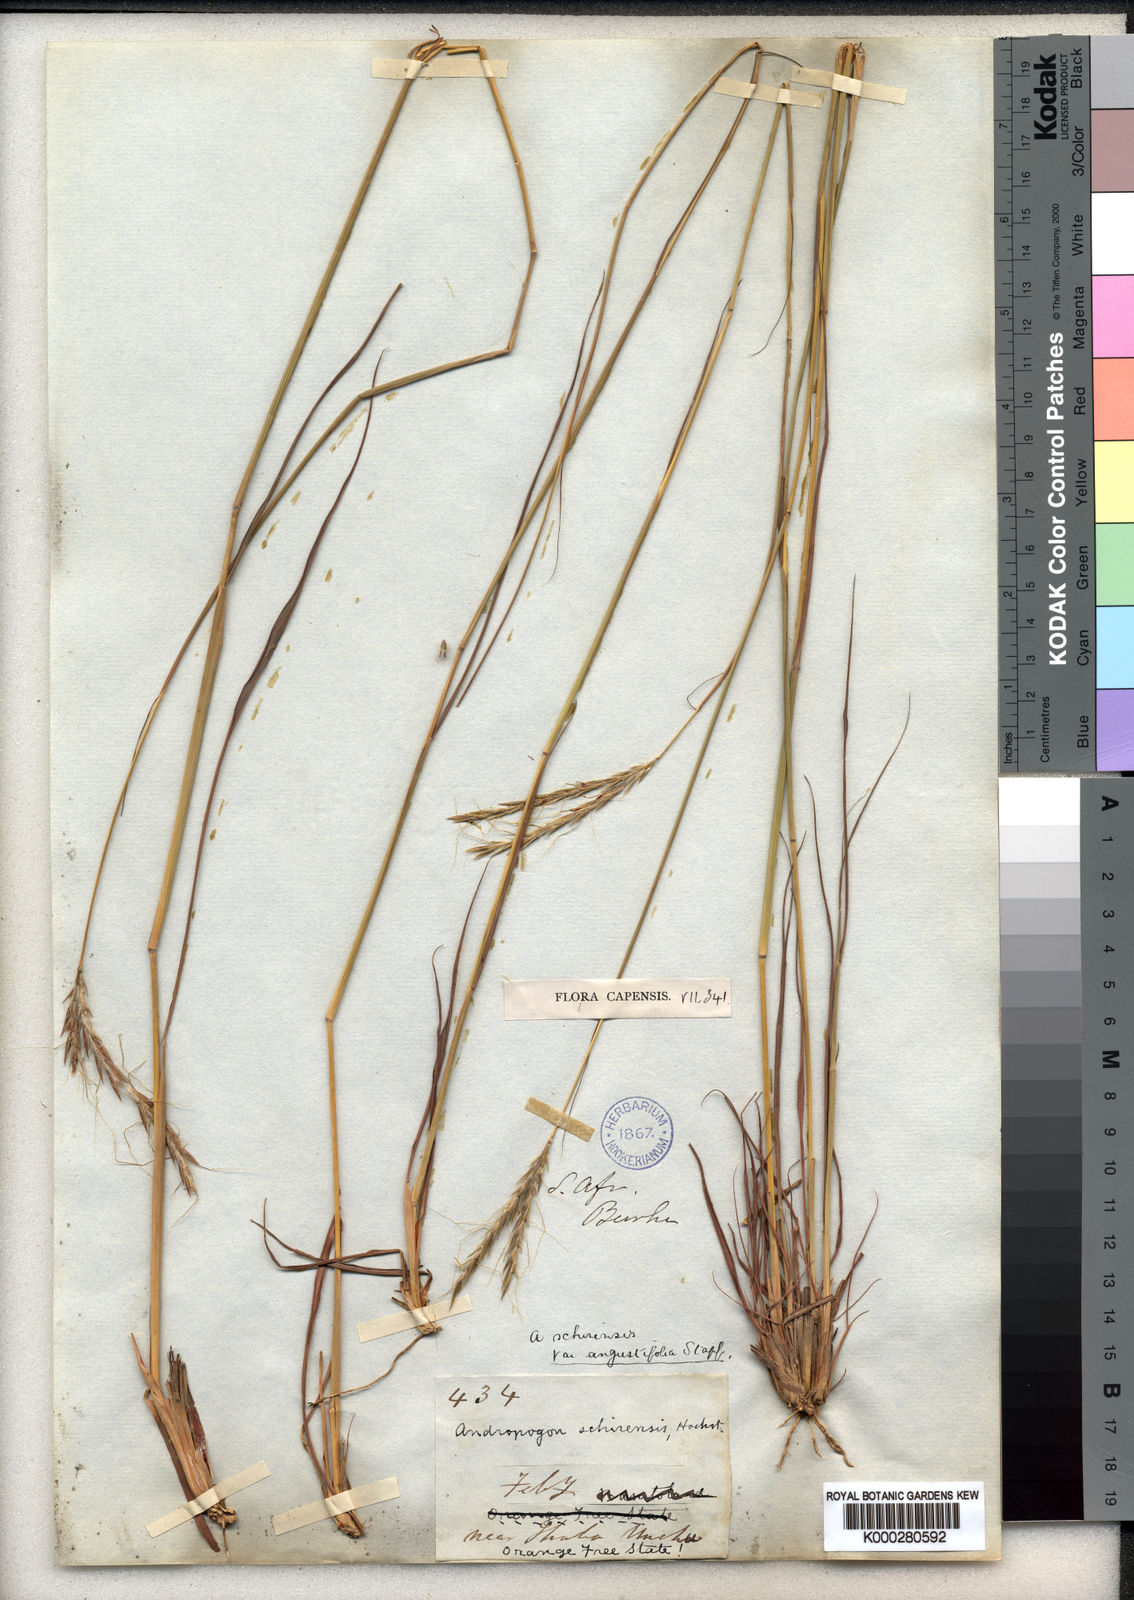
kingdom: Plantae
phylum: Tracheophyta
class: Liliopsida
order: Poales
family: Poaceae
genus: Andropogon
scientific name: Andropogon
